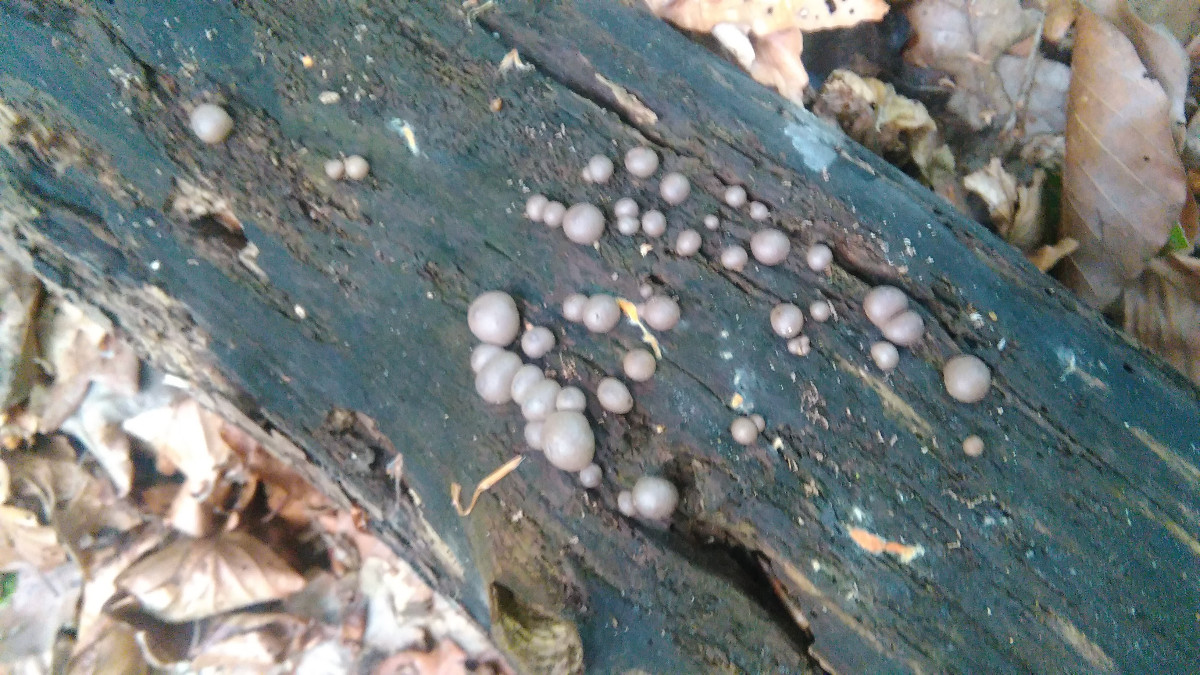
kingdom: Protozoa
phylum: Mycetozoa
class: Myxomycetes
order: Cribrariales
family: Tubiferaceae
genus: Lycogala
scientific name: Lycogala epidendrum
